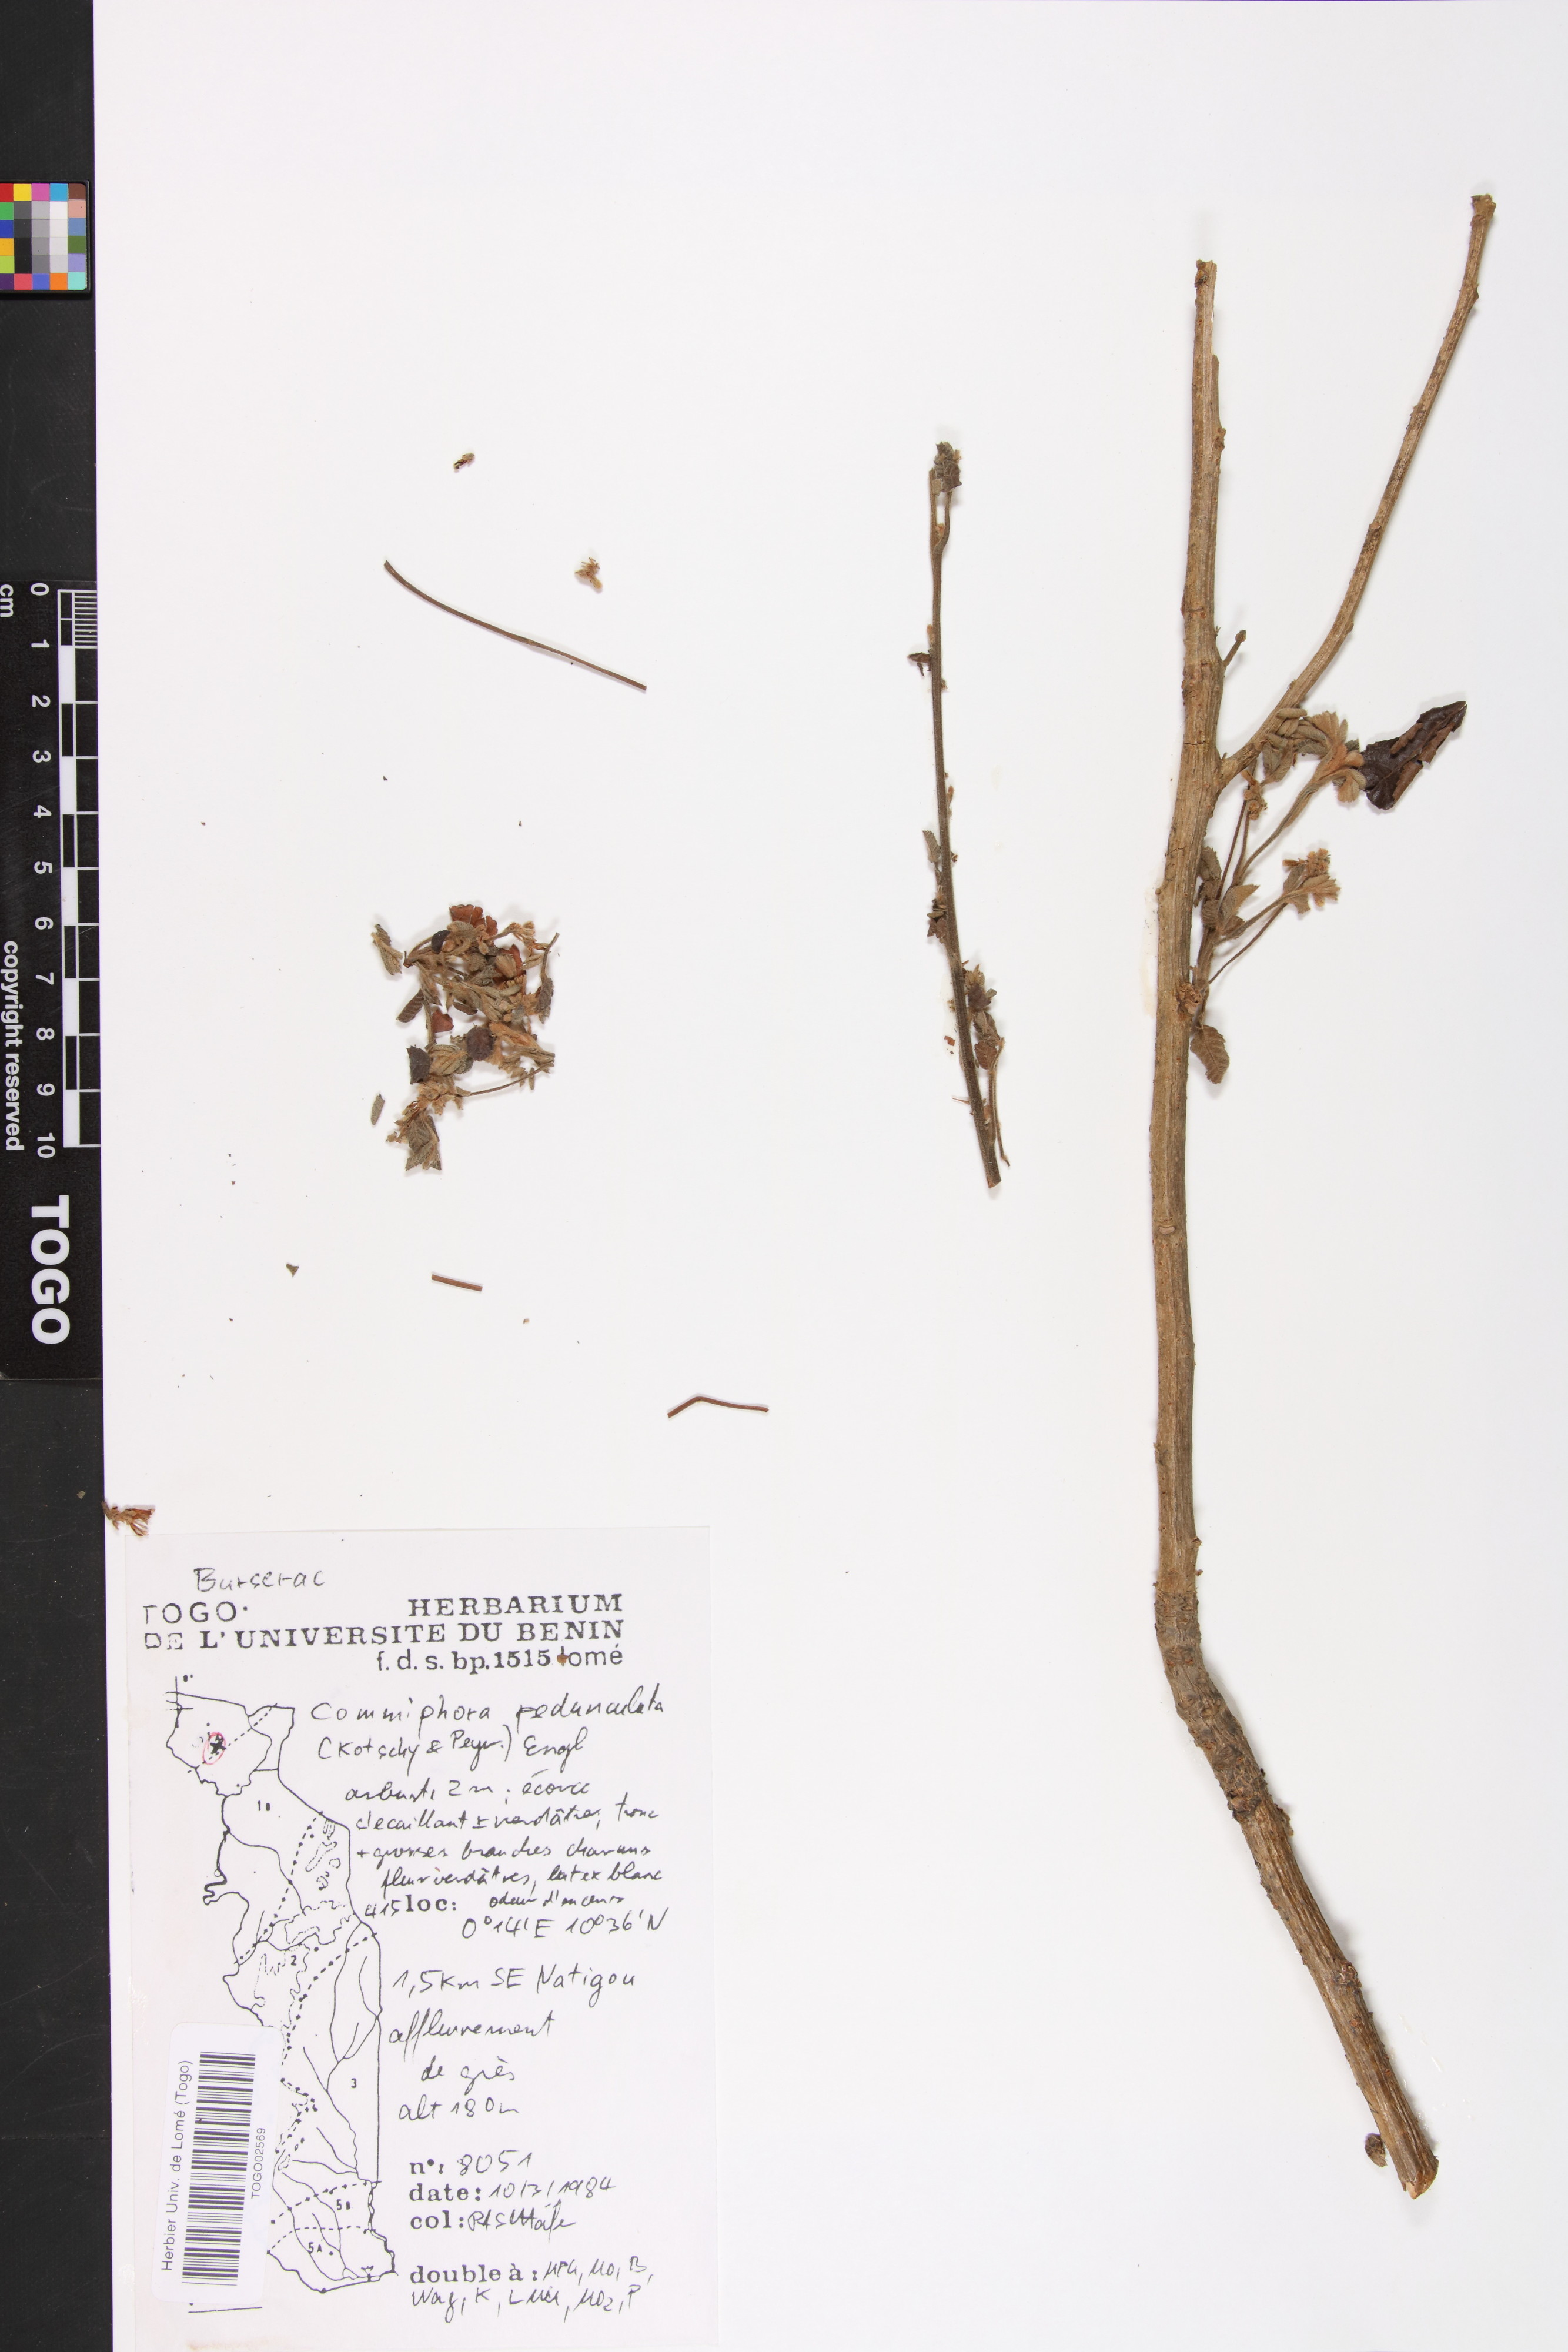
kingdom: Plantae
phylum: Tracheophyta
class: Magnoliopsida
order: Sapindales
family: Burseraceae
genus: Commiphora
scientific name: Commiphora pedunculata
